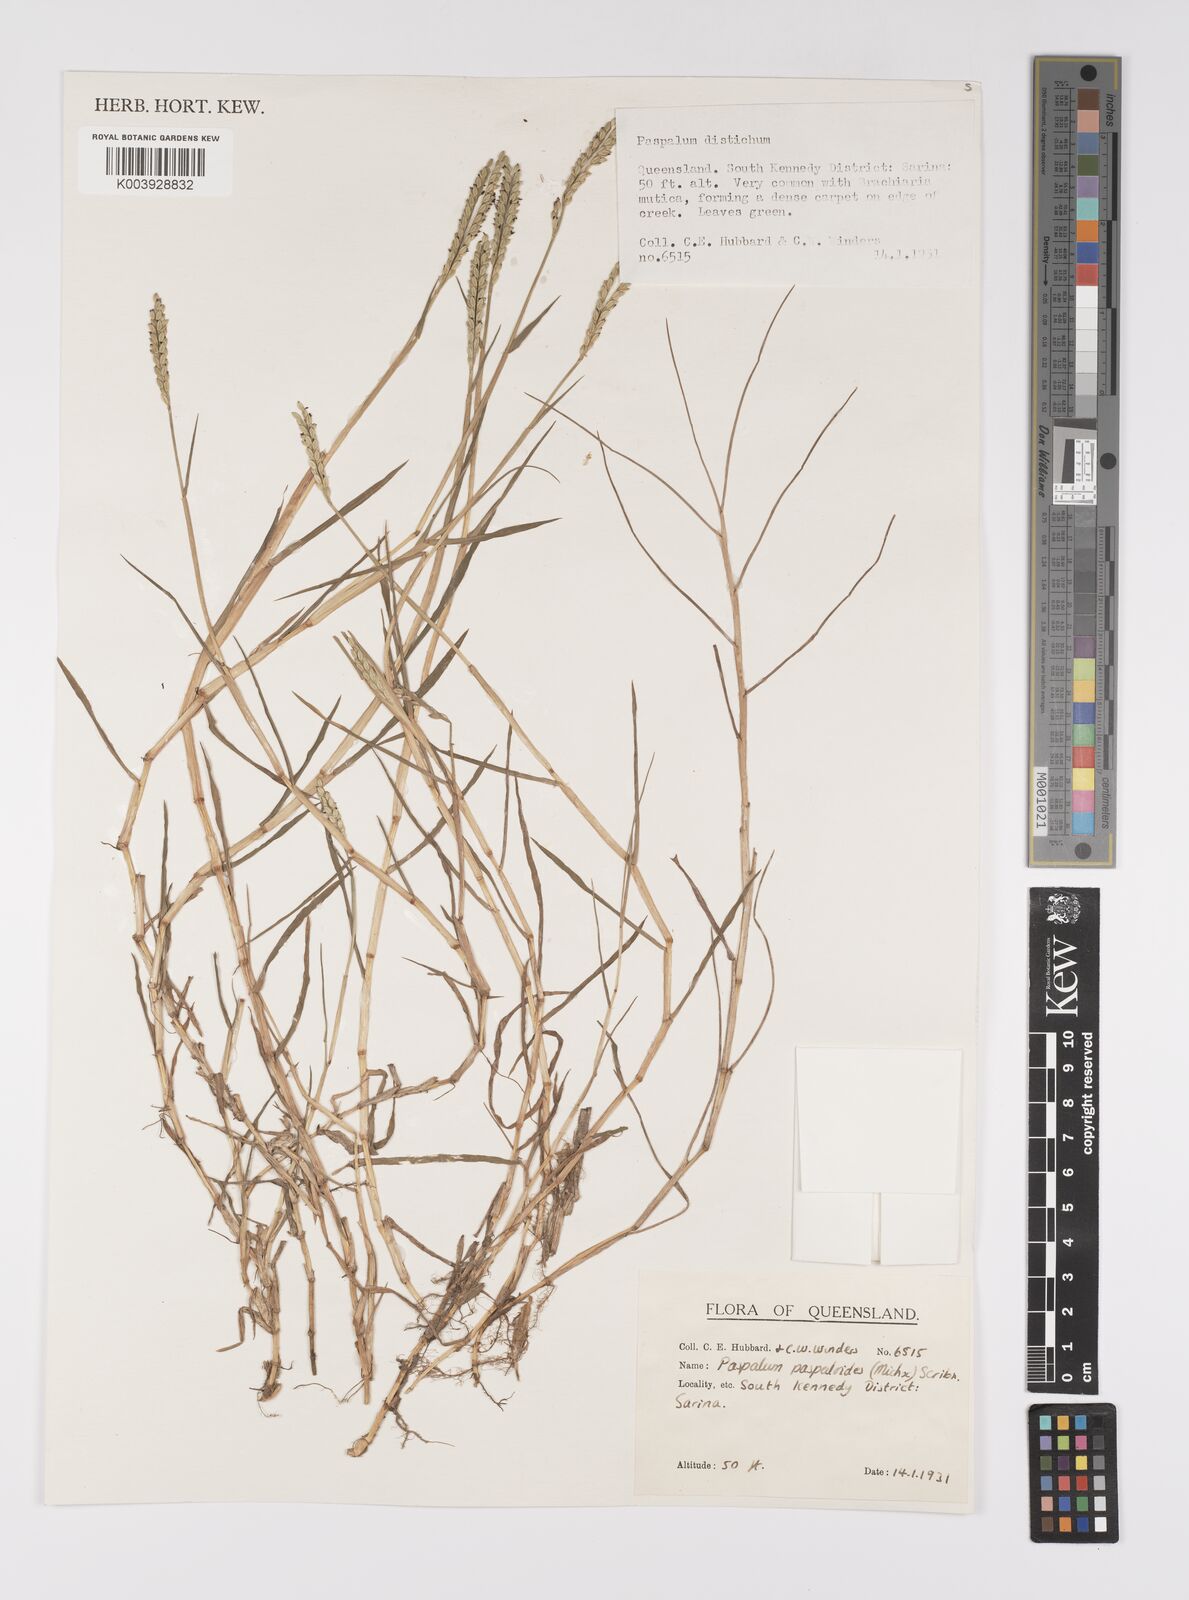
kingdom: Plantae
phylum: Tracheophyta
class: Liliopsida
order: Poales
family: Poaceae
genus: Paspalum
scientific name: Paspalum distichum
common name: Knotgrass
